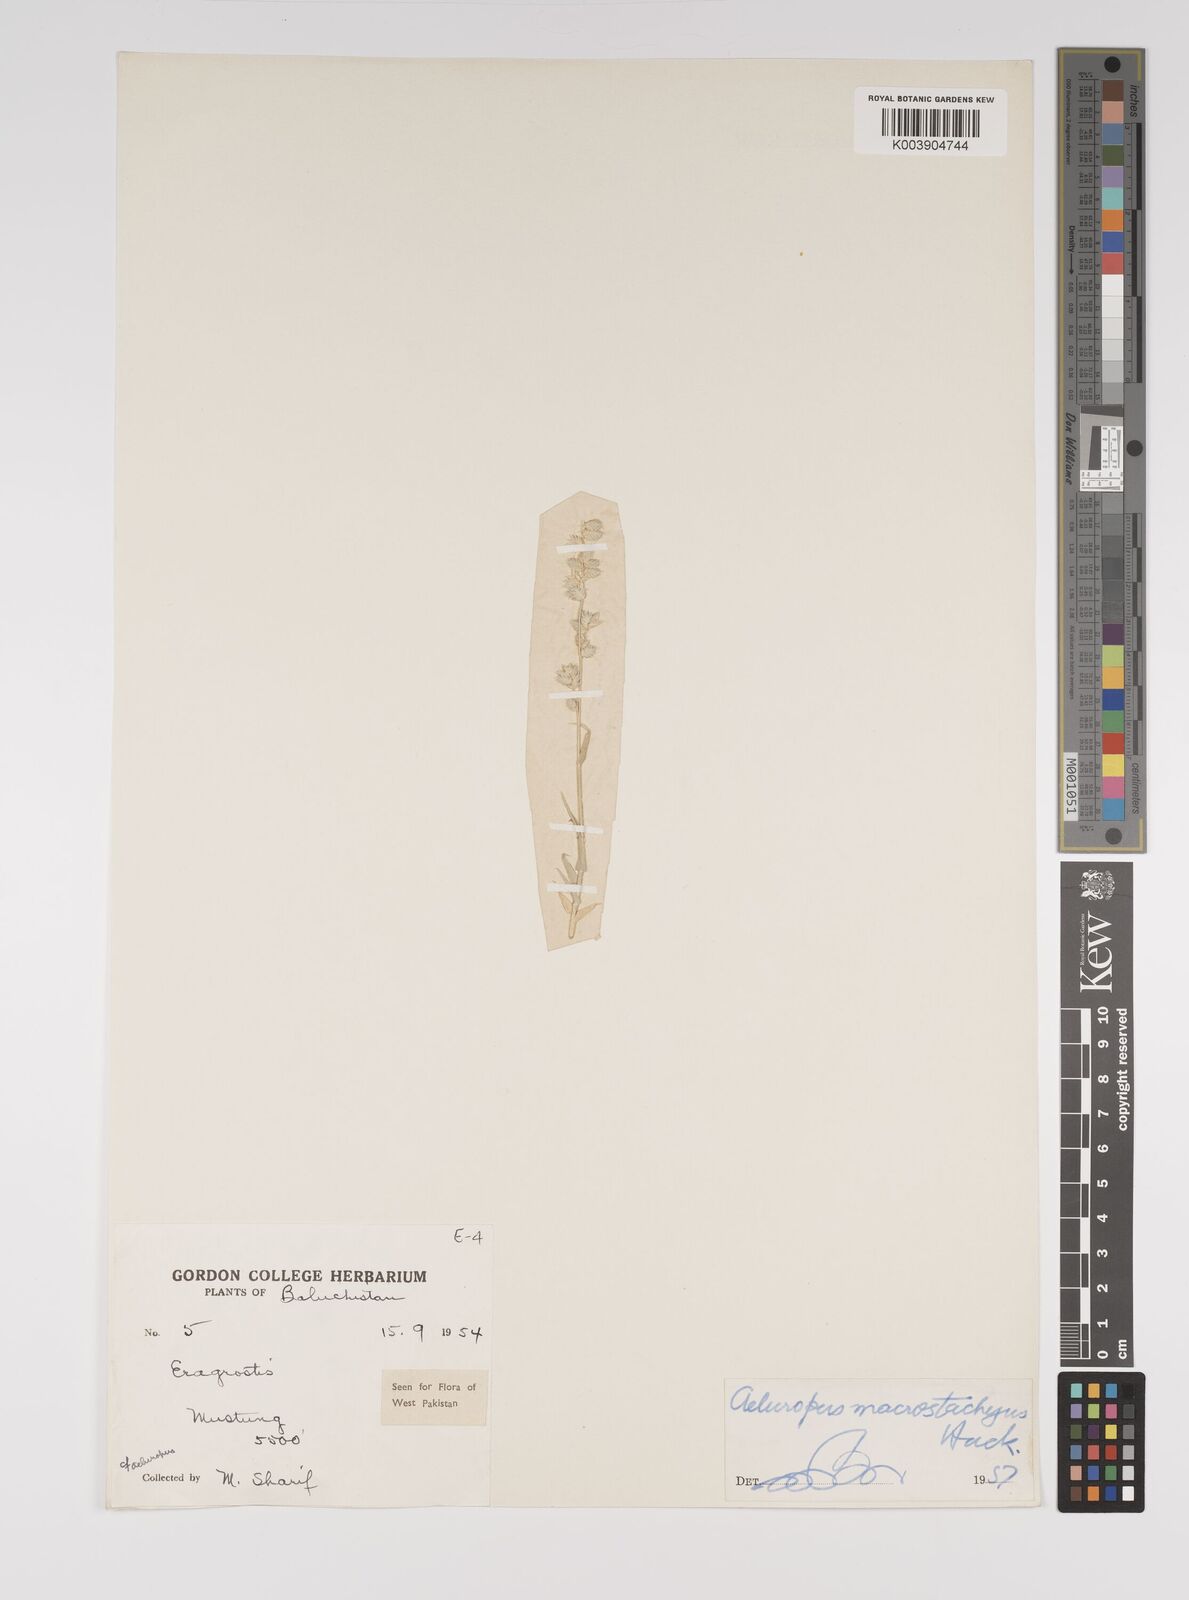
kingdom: Plantae
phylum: Tracheophyta
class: Liliopsida
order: Poales
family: Poaceae
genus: Aeluropus
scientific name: Aeluropus macrostachyus
